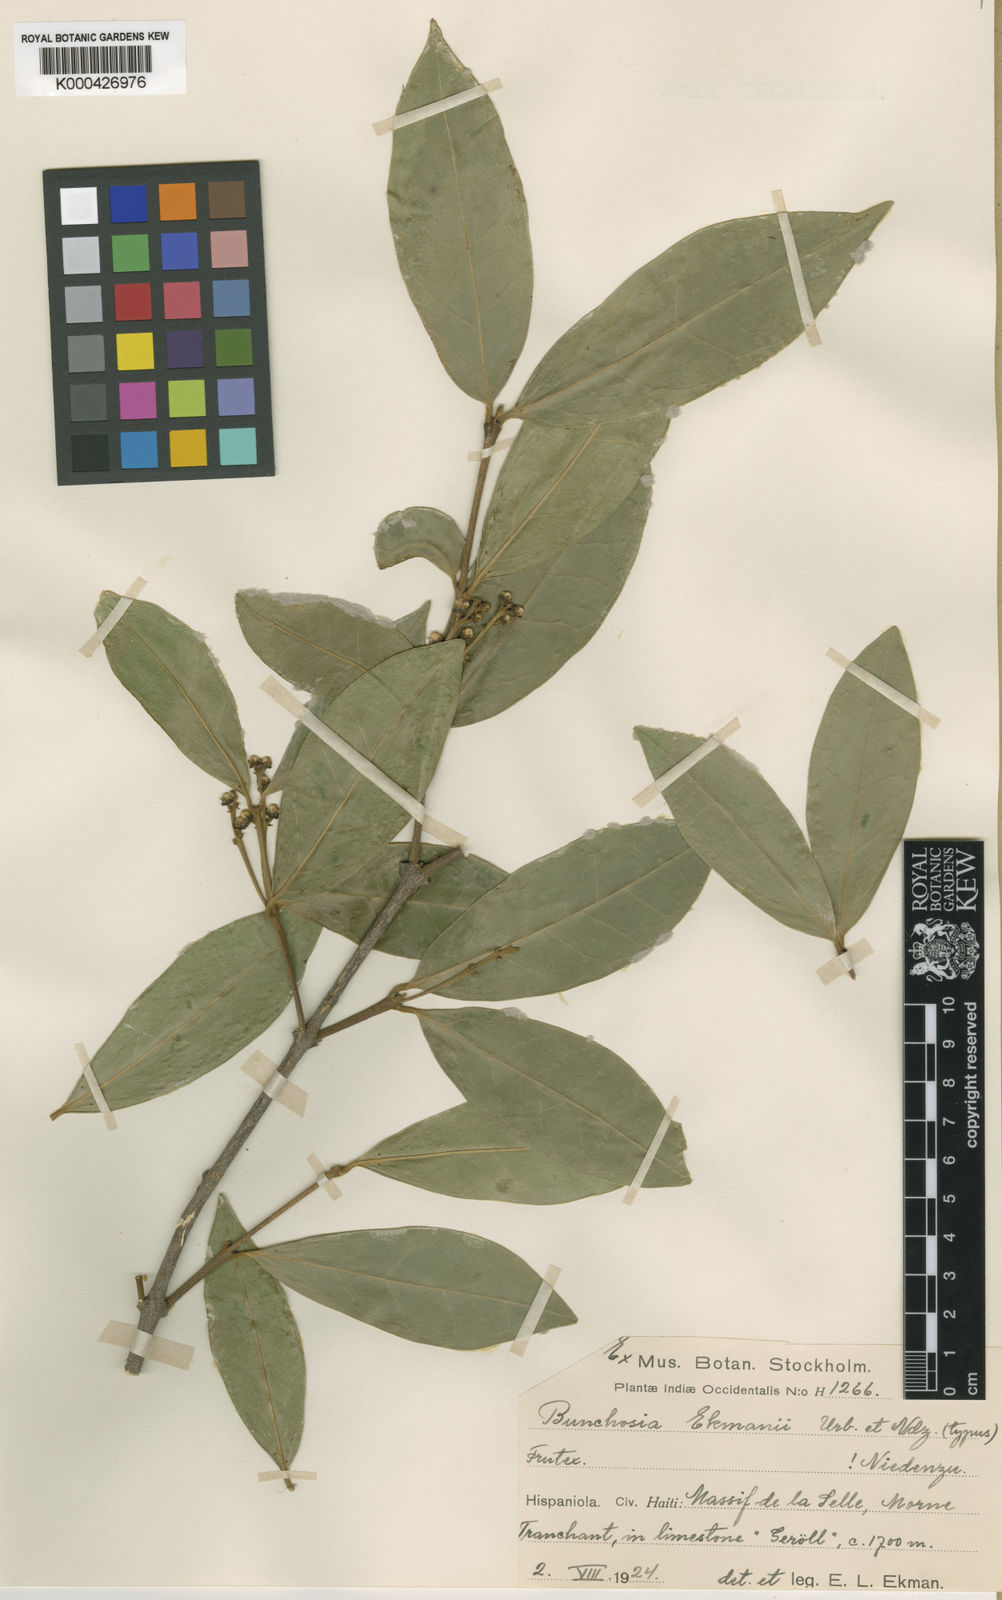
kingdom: Plantae
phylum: Tracheophyta
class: Magnoliopsida
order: Malpighiales
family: Malpighiaceae
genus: Bunchosia
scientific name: Bunchosia ekmanii
